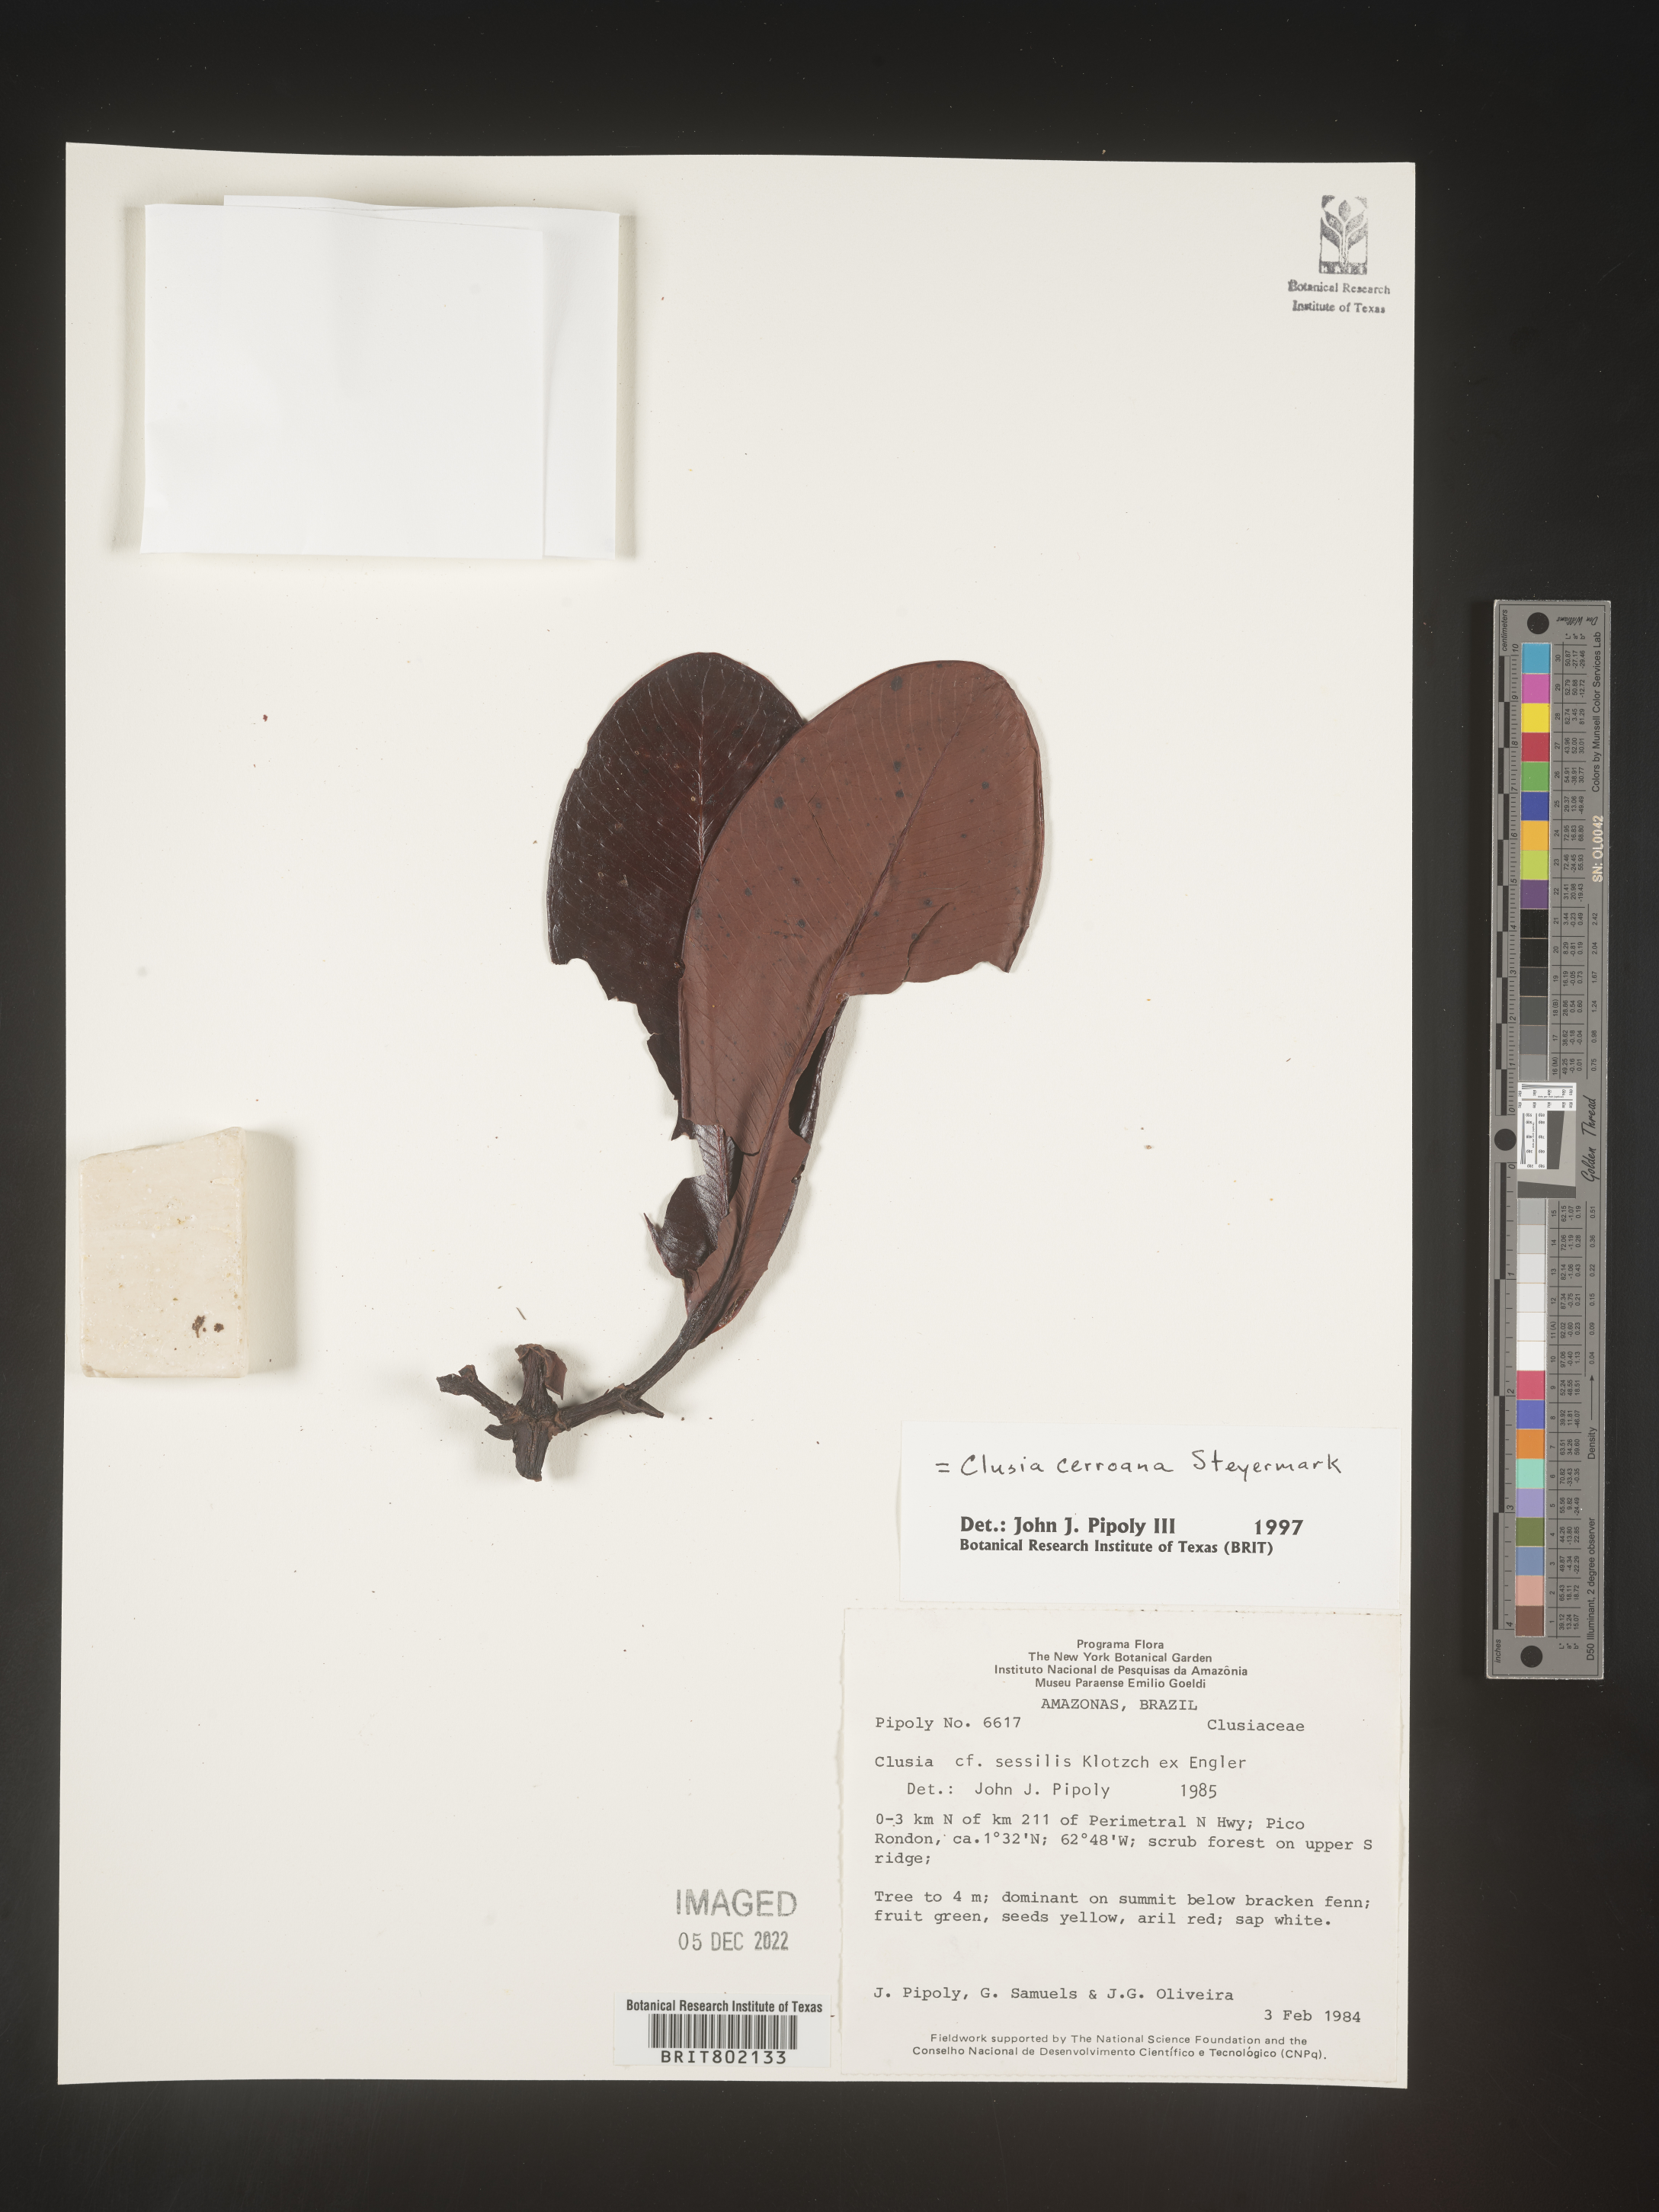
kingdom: Plantae
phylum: Tracheophyta
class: Magnoliopsida
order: Malpighiales
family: Clusiaceae
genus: Clusia
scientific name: Clusia cerroana
